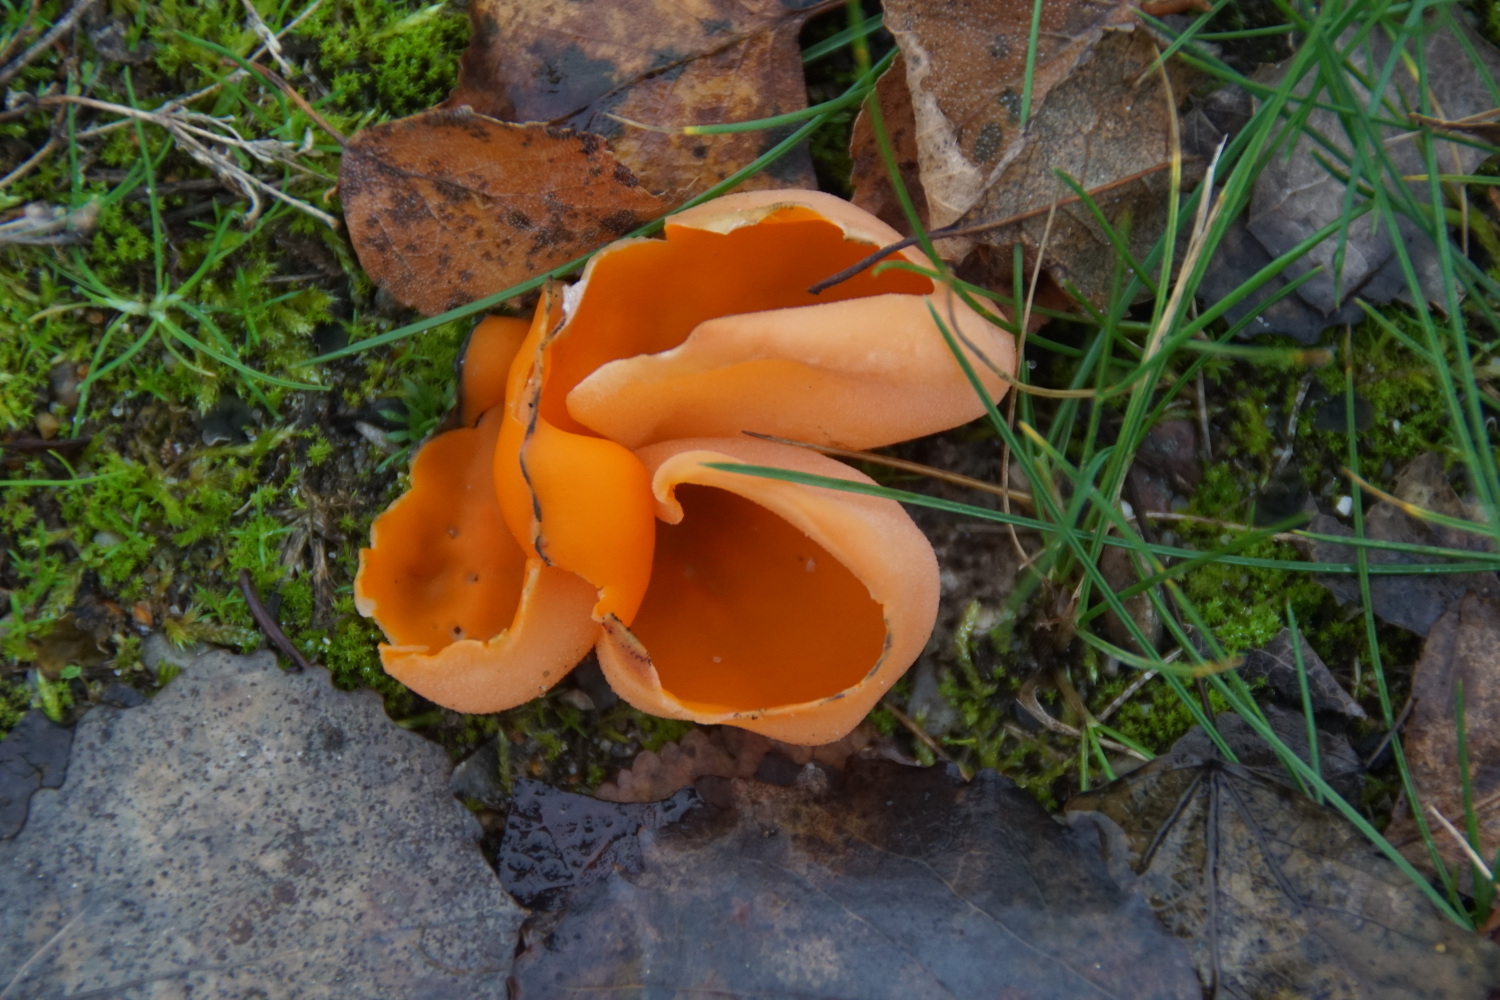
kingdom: Fungi
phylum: Ascomycota
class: Pezizomycetes
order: Pezizales
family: Pyronemataceae
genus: Aleuria
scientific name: Aleuria aurantia
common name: almindelig orangebæger
